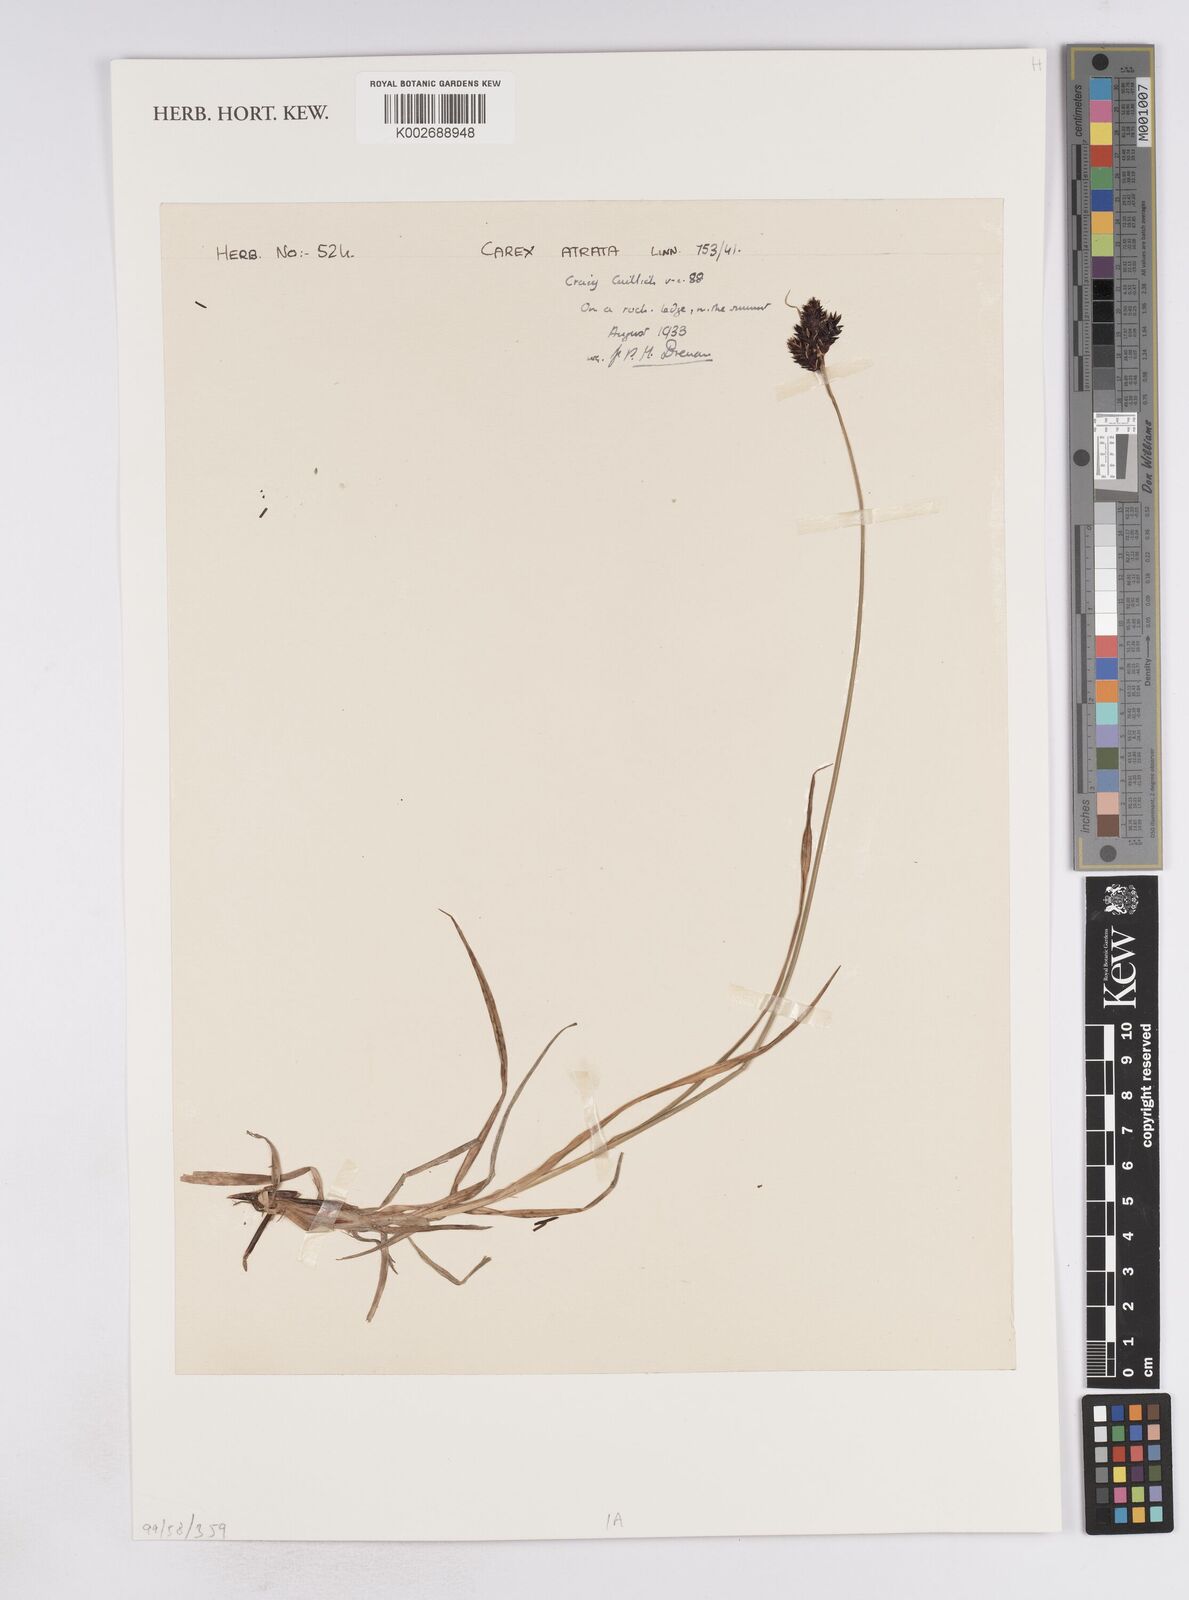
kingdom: Plantae
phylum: Tracheophyta
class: Liliopsida
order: Poales
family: Cyperaceae
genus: Carex
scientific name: Carex atrata
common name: Black alpine sedge
